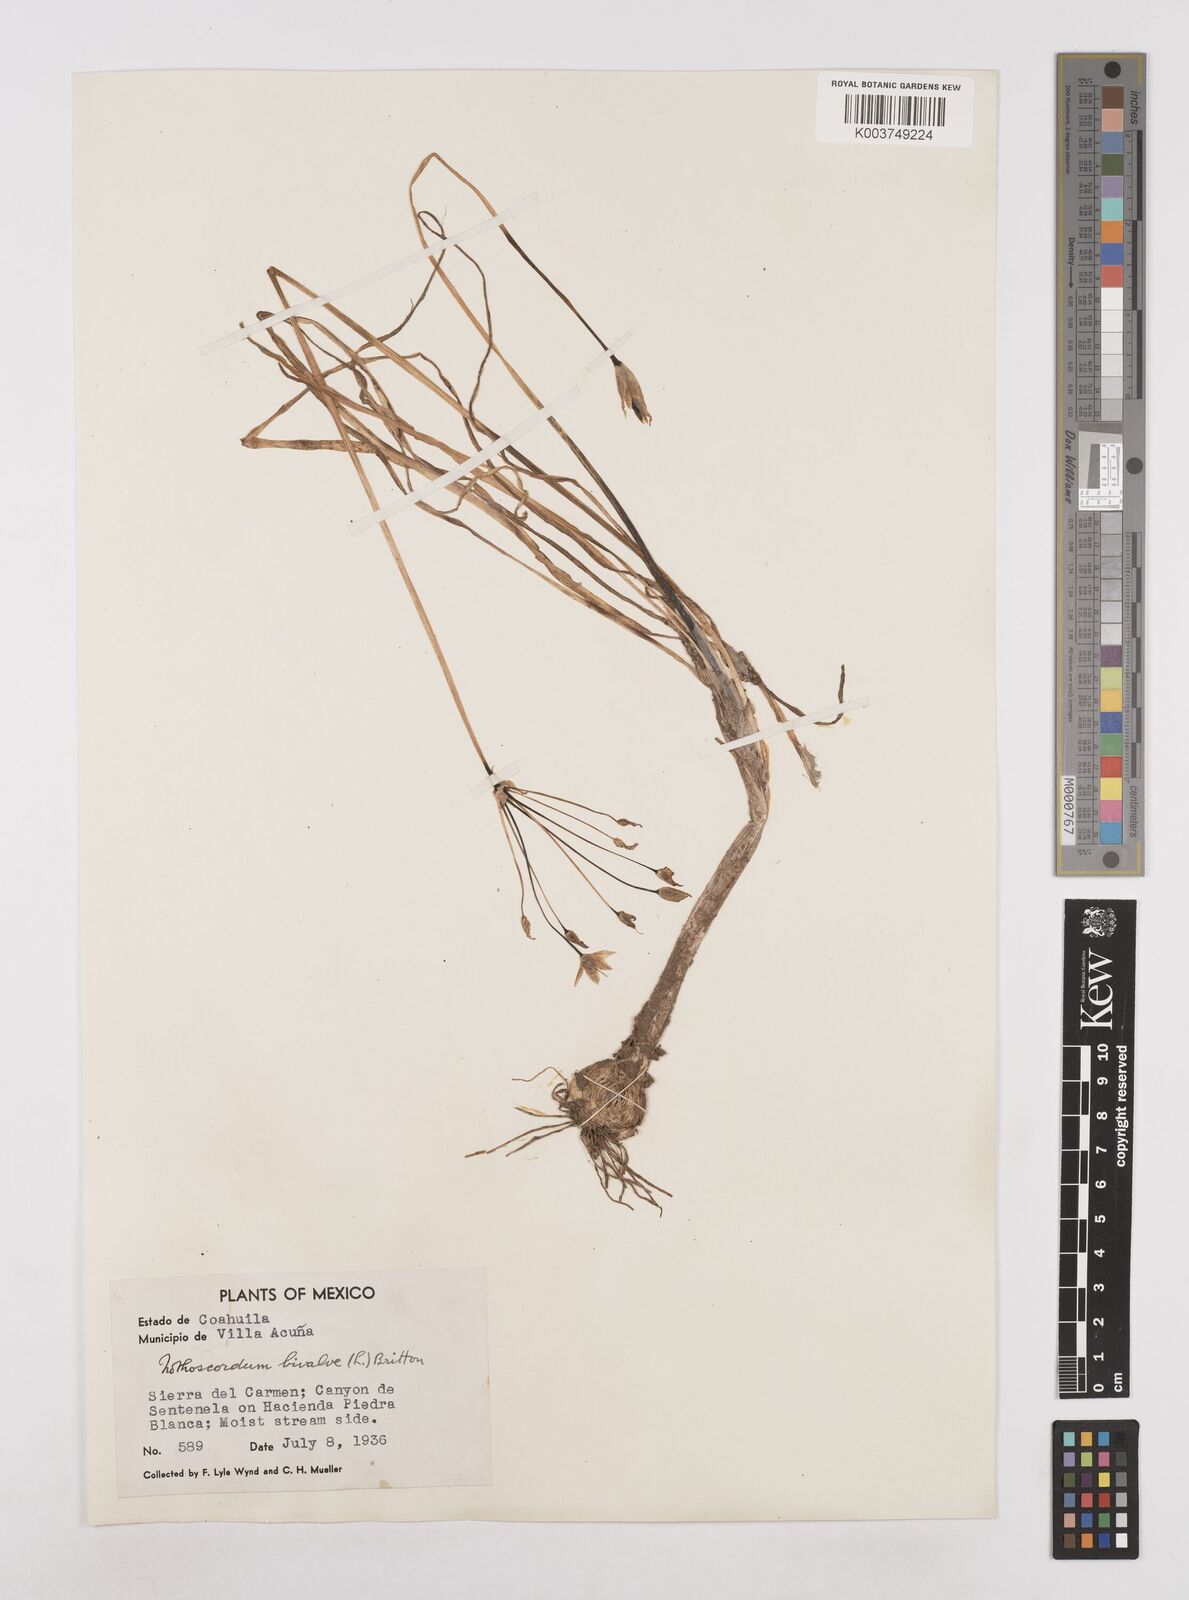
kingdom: Plantae
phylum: Tracheophyta
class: Liliopsida
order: Asparagales
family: Amaryllidaceae
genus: Nothoscordum
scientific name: Nothoscordum bivalve
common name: Crow-poison
